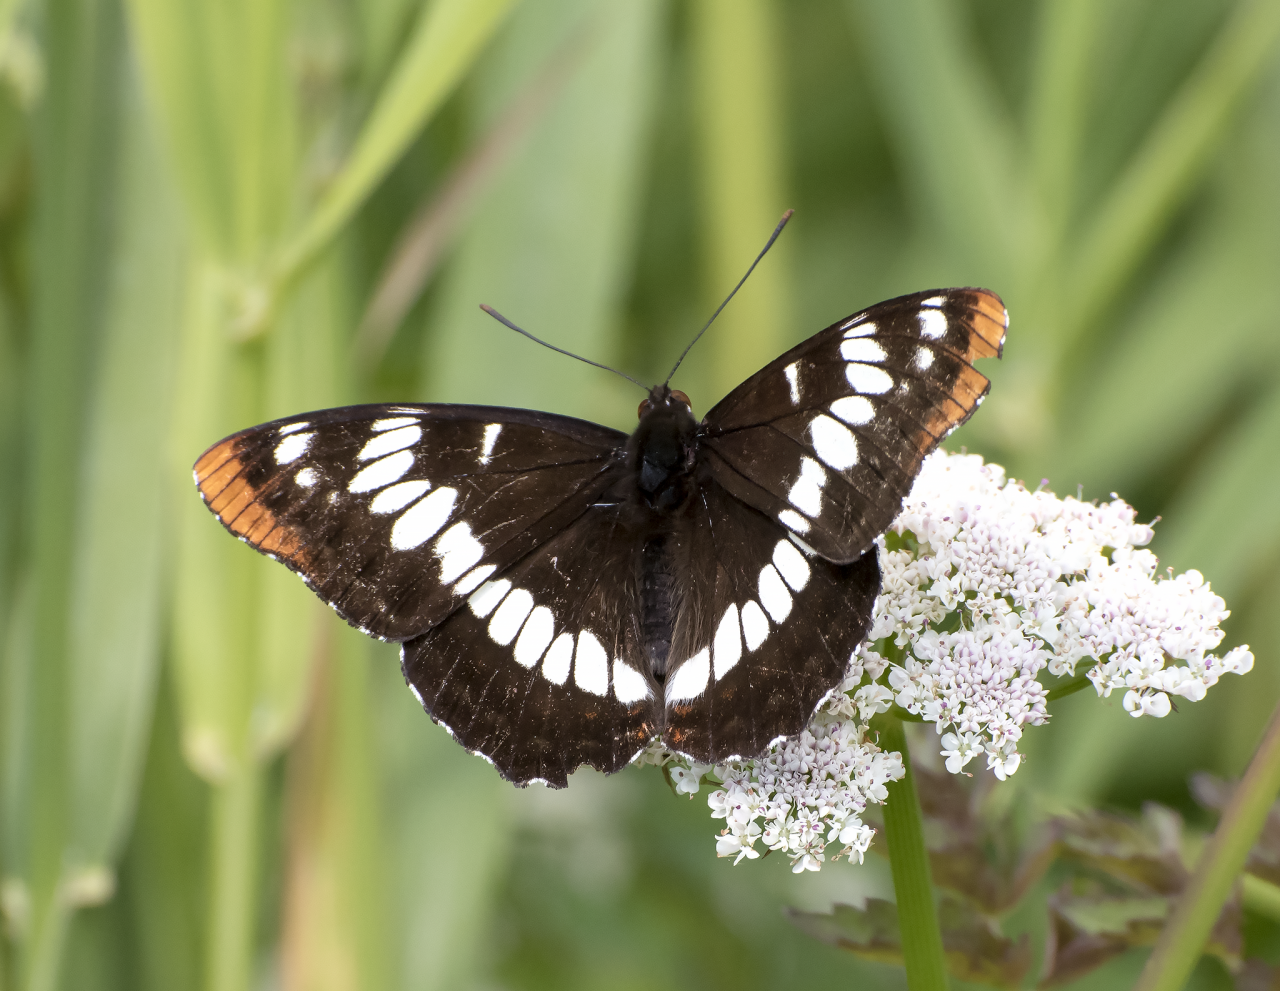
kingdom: Animalia
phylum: Arthropoda
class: Insecta
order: Lepidoptera
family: Nymphalidae
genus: Limenitis
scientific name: Limenitis lorquini
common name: Lorquin's Admiral
